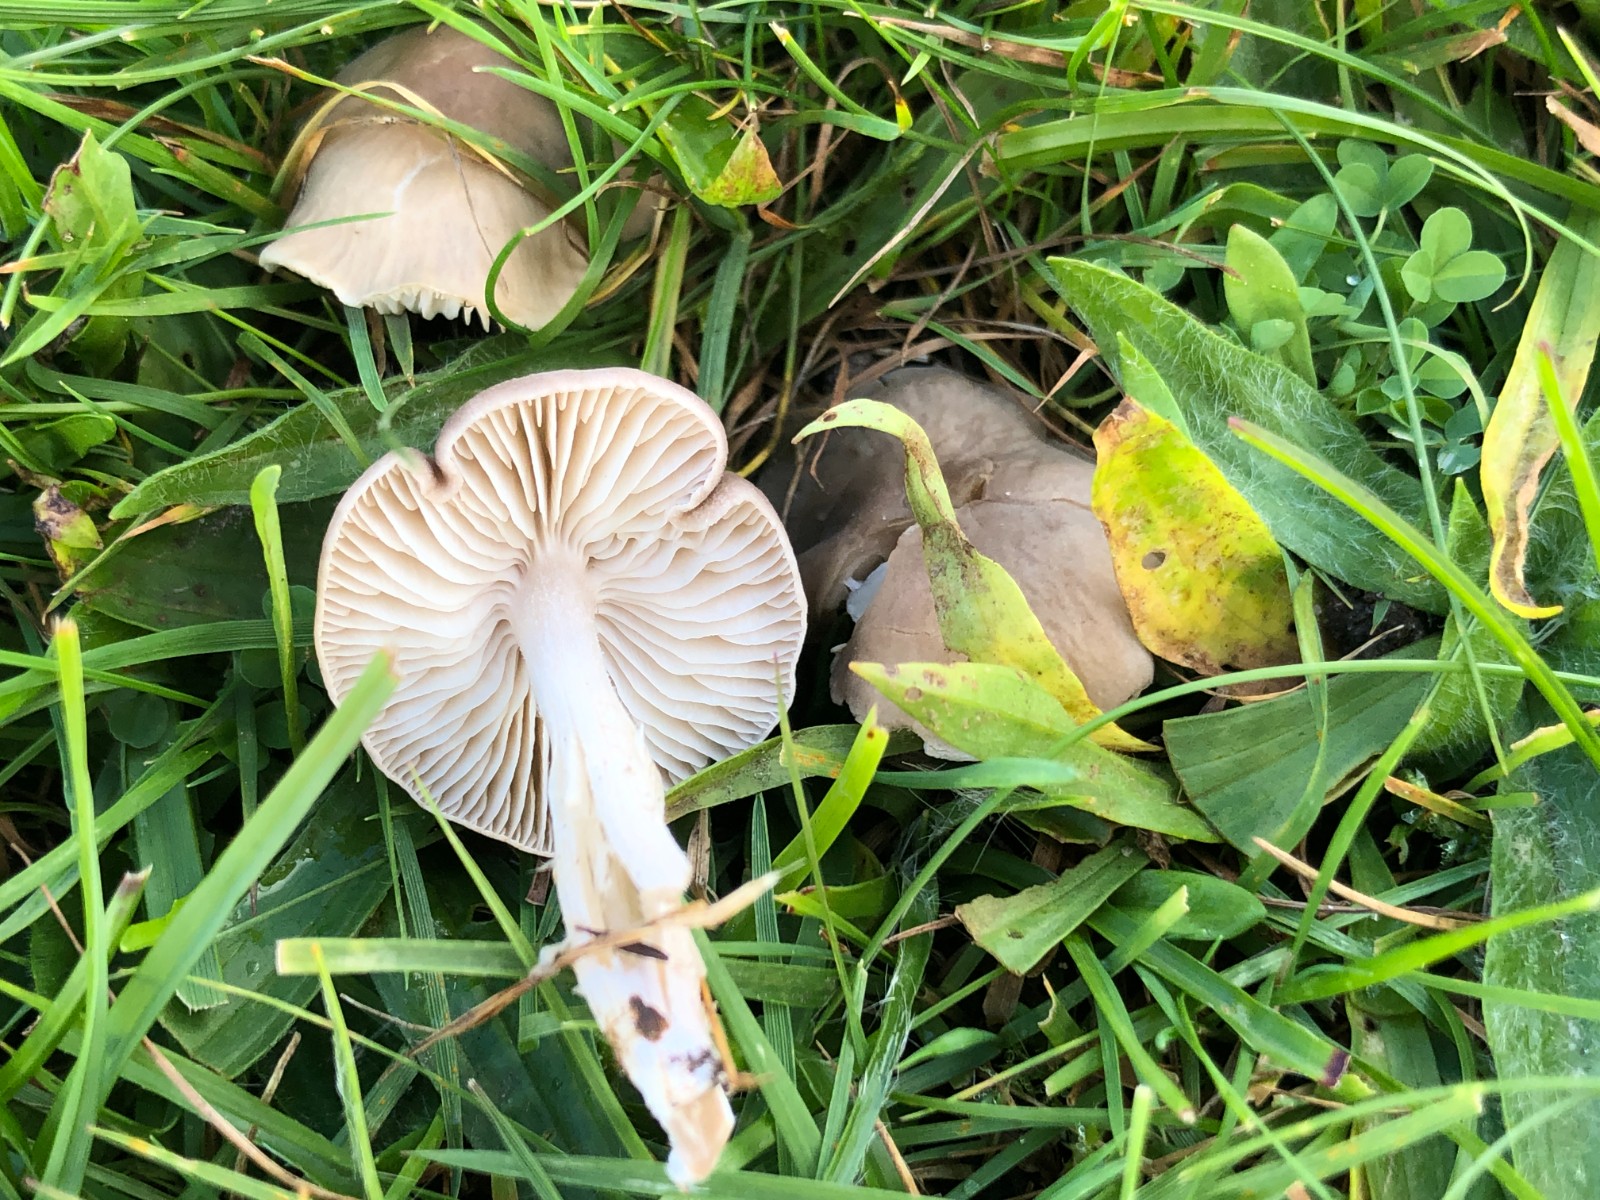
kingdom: Fungi
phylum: Basidiomycota
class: Agaricomycetes
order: Agaricales
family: Tricholomataceae
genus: Dermoloma
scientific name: Dermoloma cuneifolium
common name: eng-nonnehat
